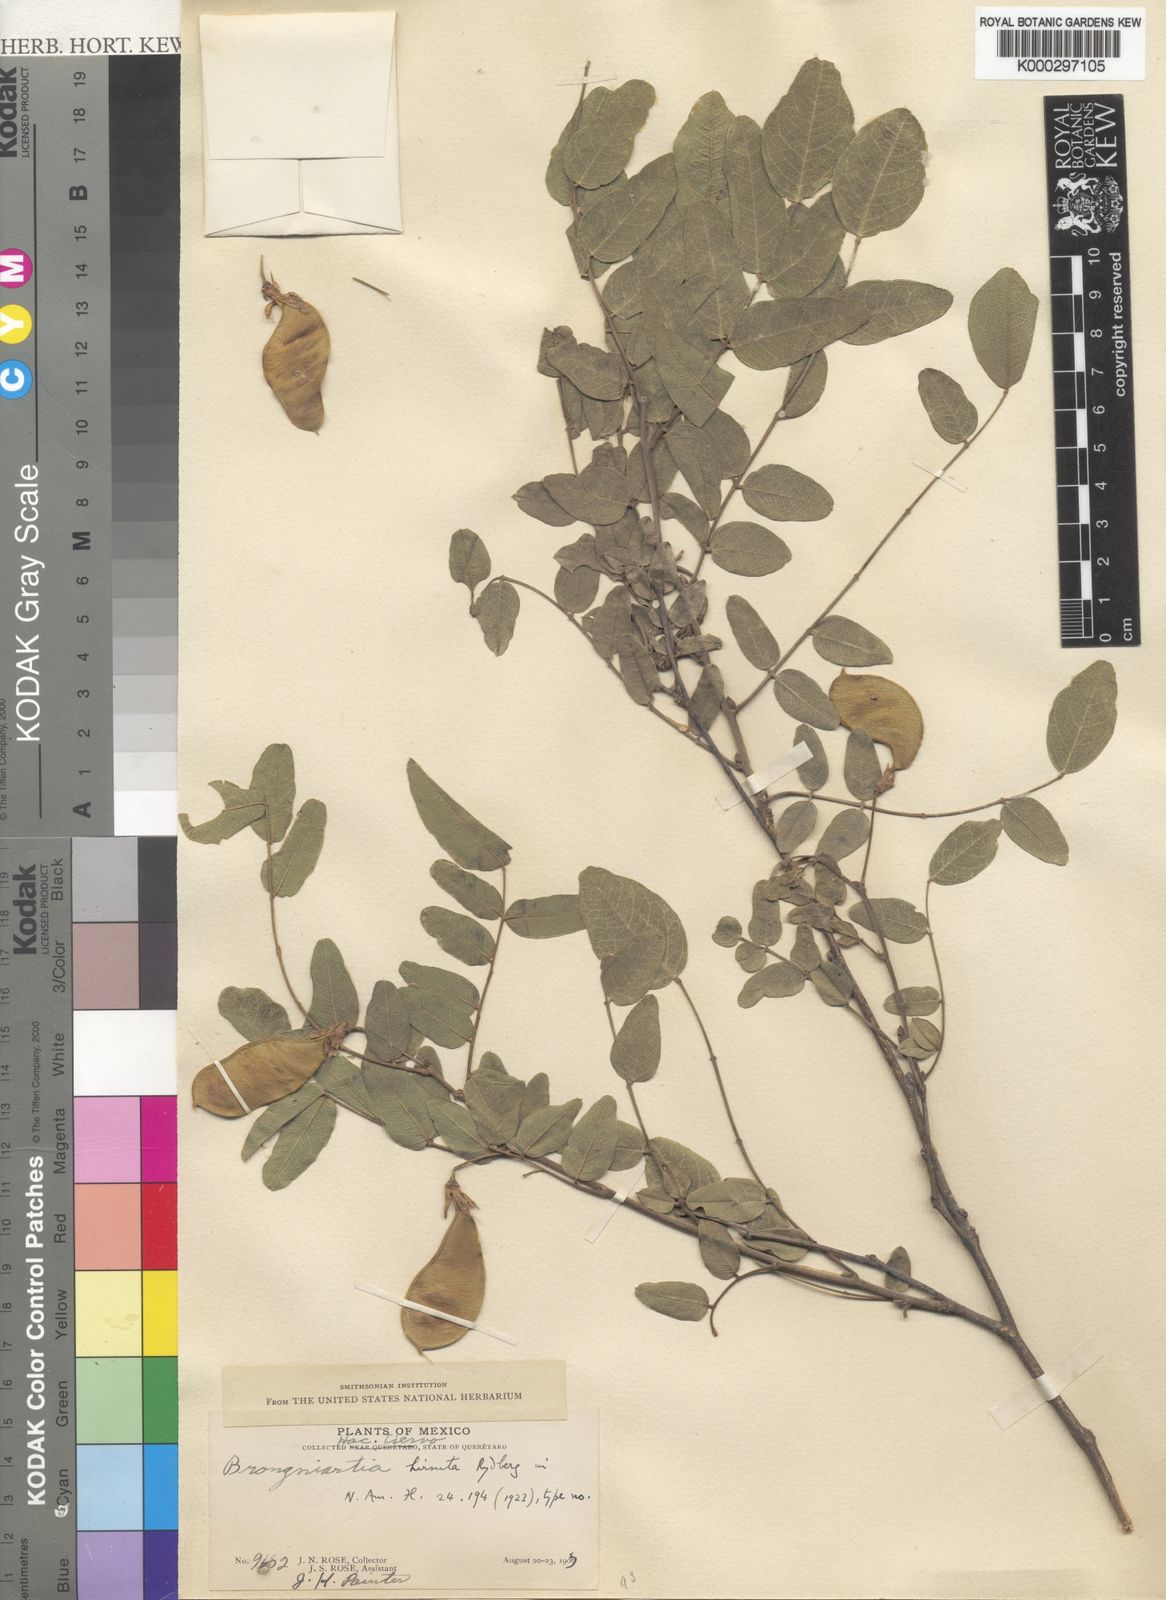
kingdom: Plantae
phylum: Tracheophyta
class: Magnoliopsida
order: Fabales
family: Fabaceae
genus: Brongniartia
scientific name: Brongniartia hirsuta
